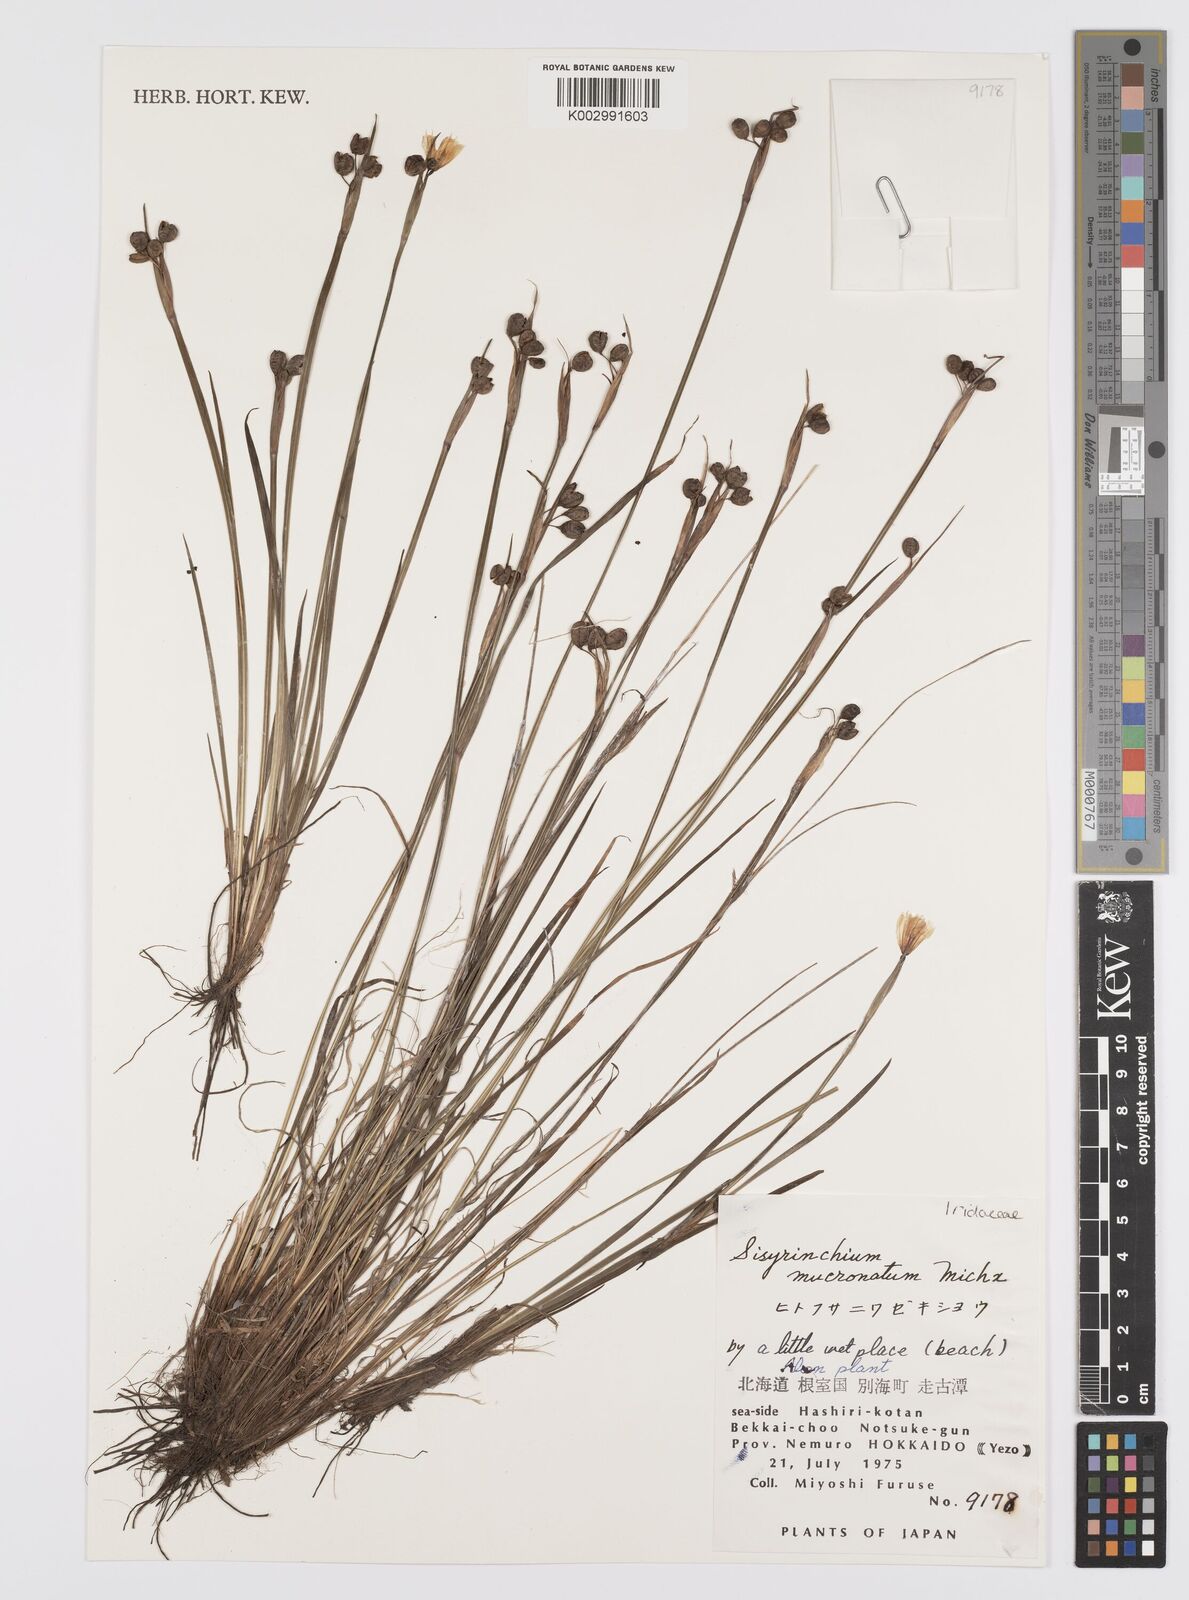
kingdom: Plantae
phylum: Tracheophyta
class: Liliopsida
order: Asparagales
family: Iridaceae
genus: Sisyrinchium
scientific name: Sisyrinchium mucronatum
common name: Eastern blue-eyed-grass
